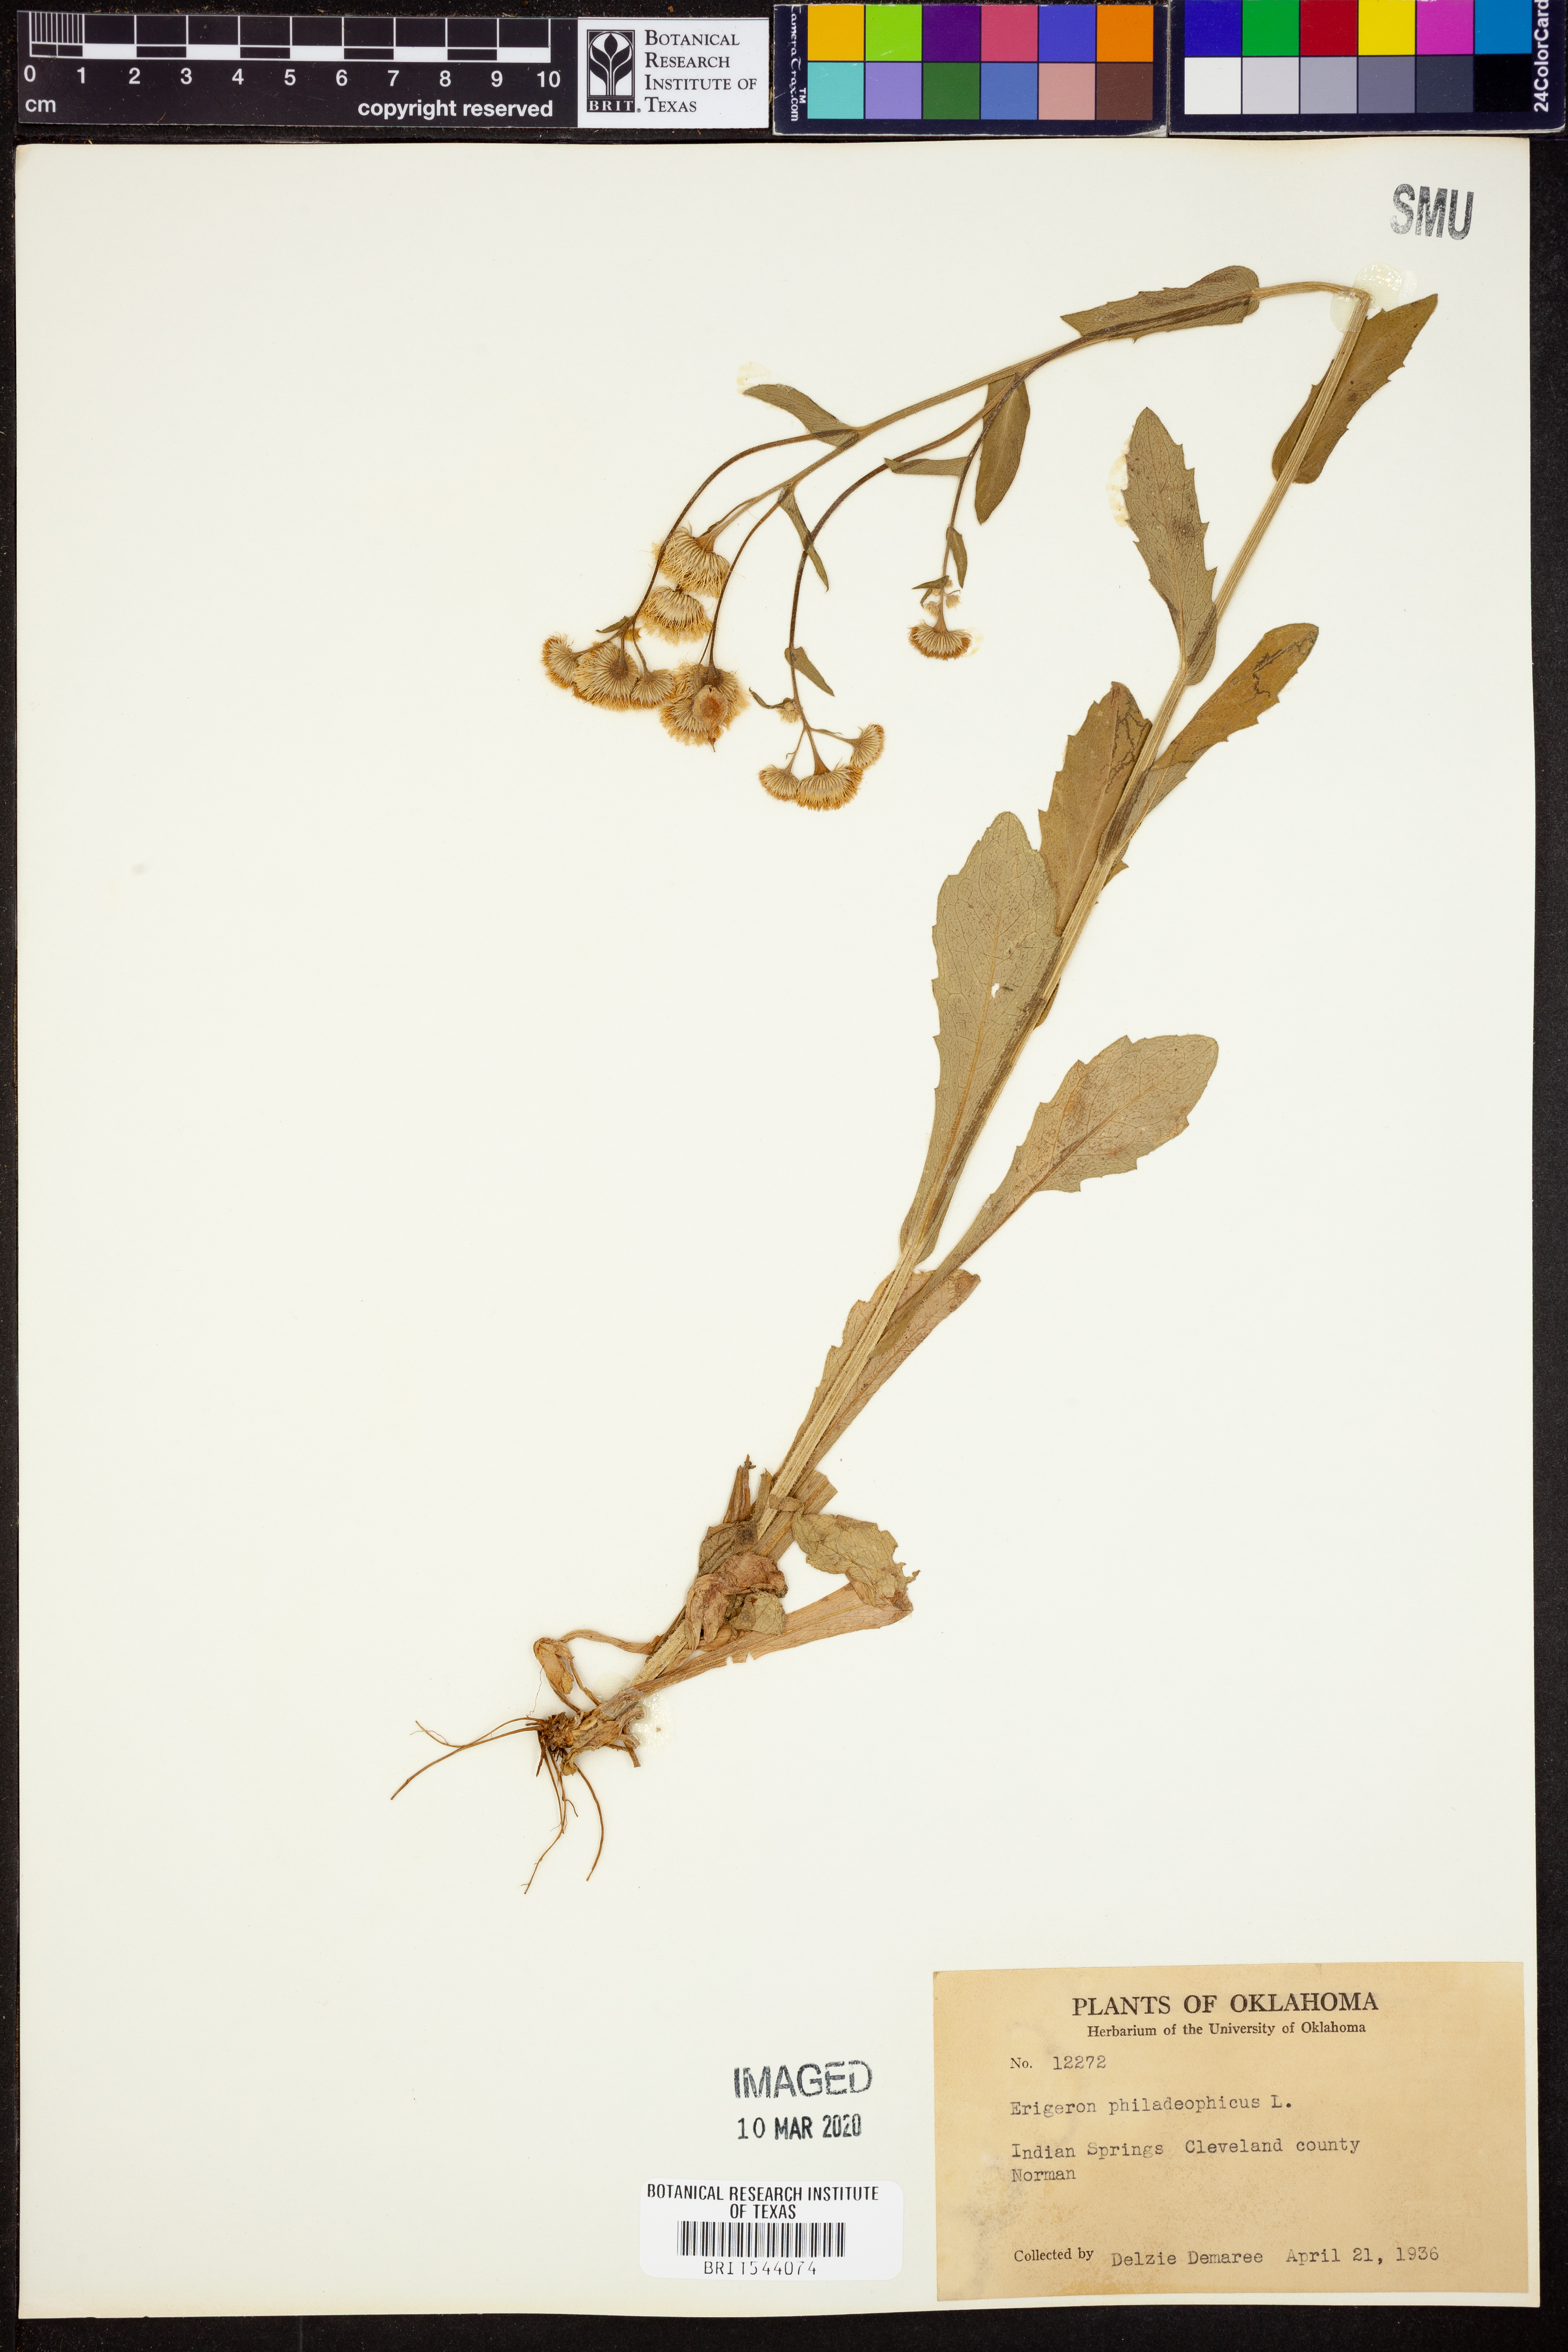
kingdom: Plantae
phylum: Tracheophyta
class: Magnoliopsida
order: Asterales
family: Asteraceae
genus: Erigeron
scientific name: Erigeron philadelphicus
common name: Robin's-plantain
